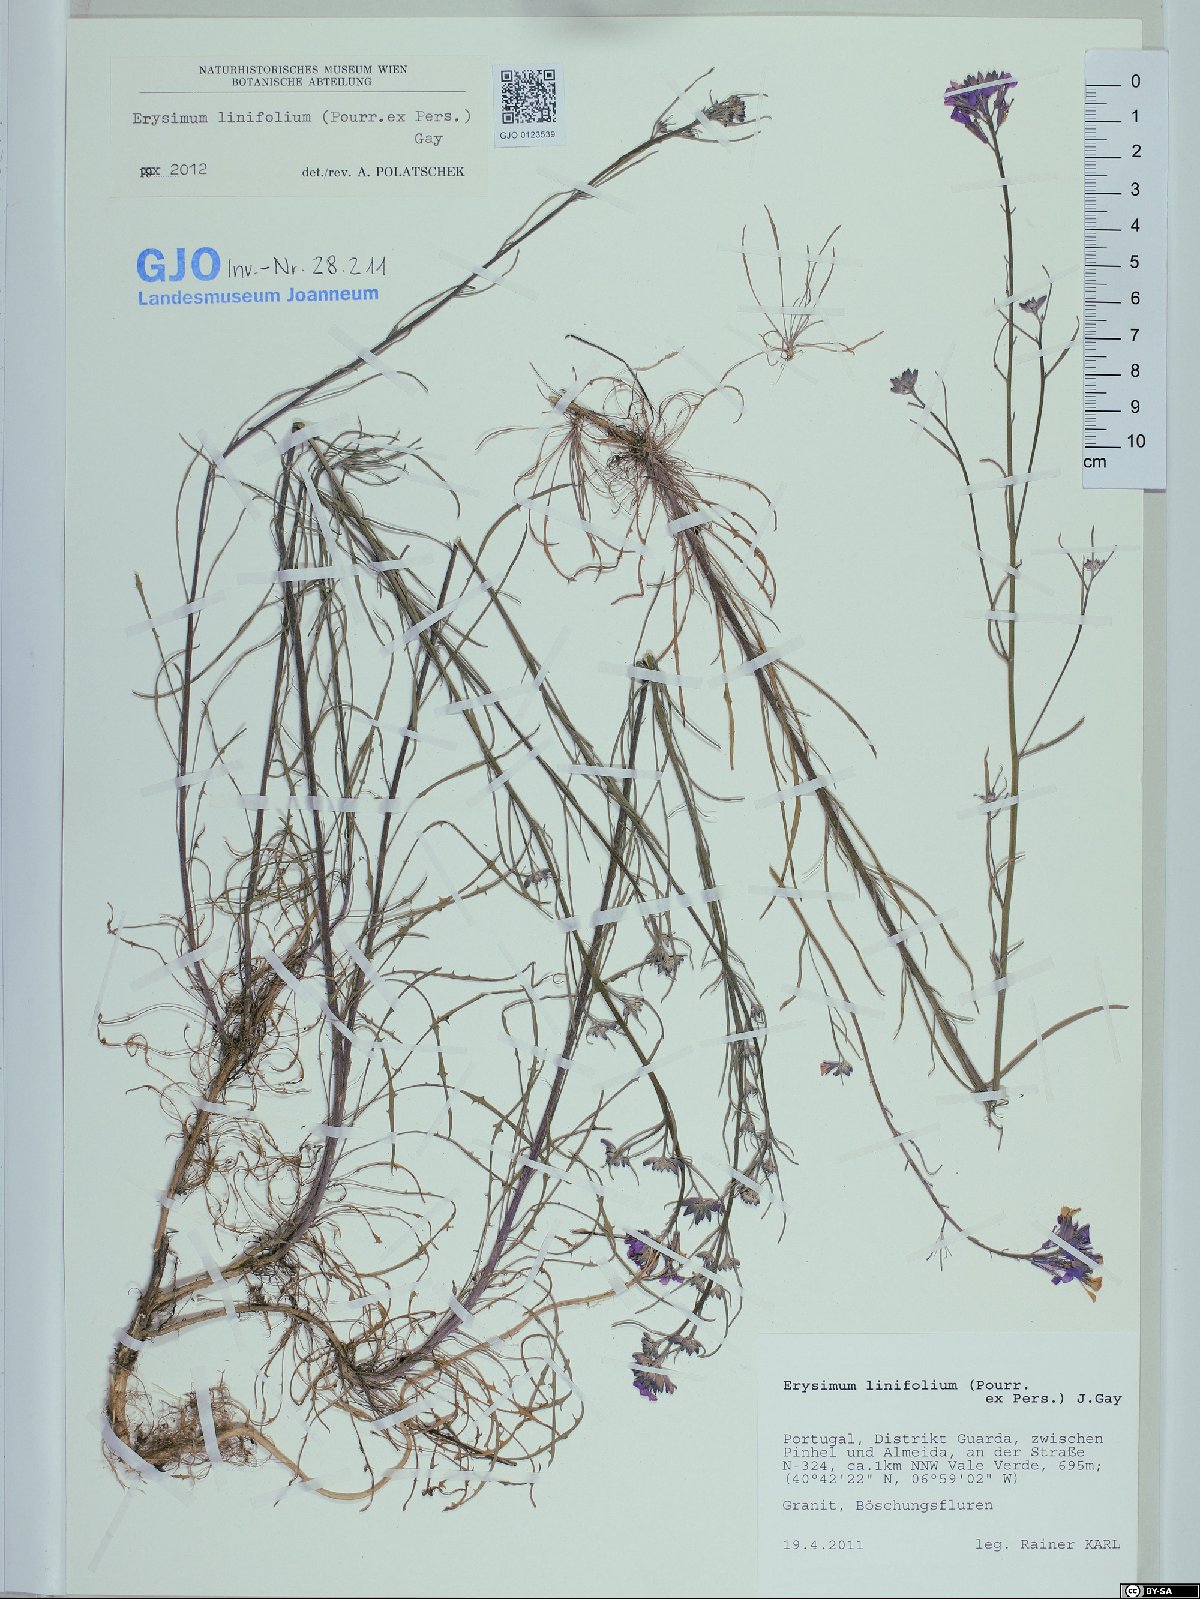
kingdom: Plantae
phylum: Tracheophyta
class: Magnoliopsida
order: Brassicales
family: Brassicaceae
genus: Erysimum
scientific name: Erysimum linifolium
